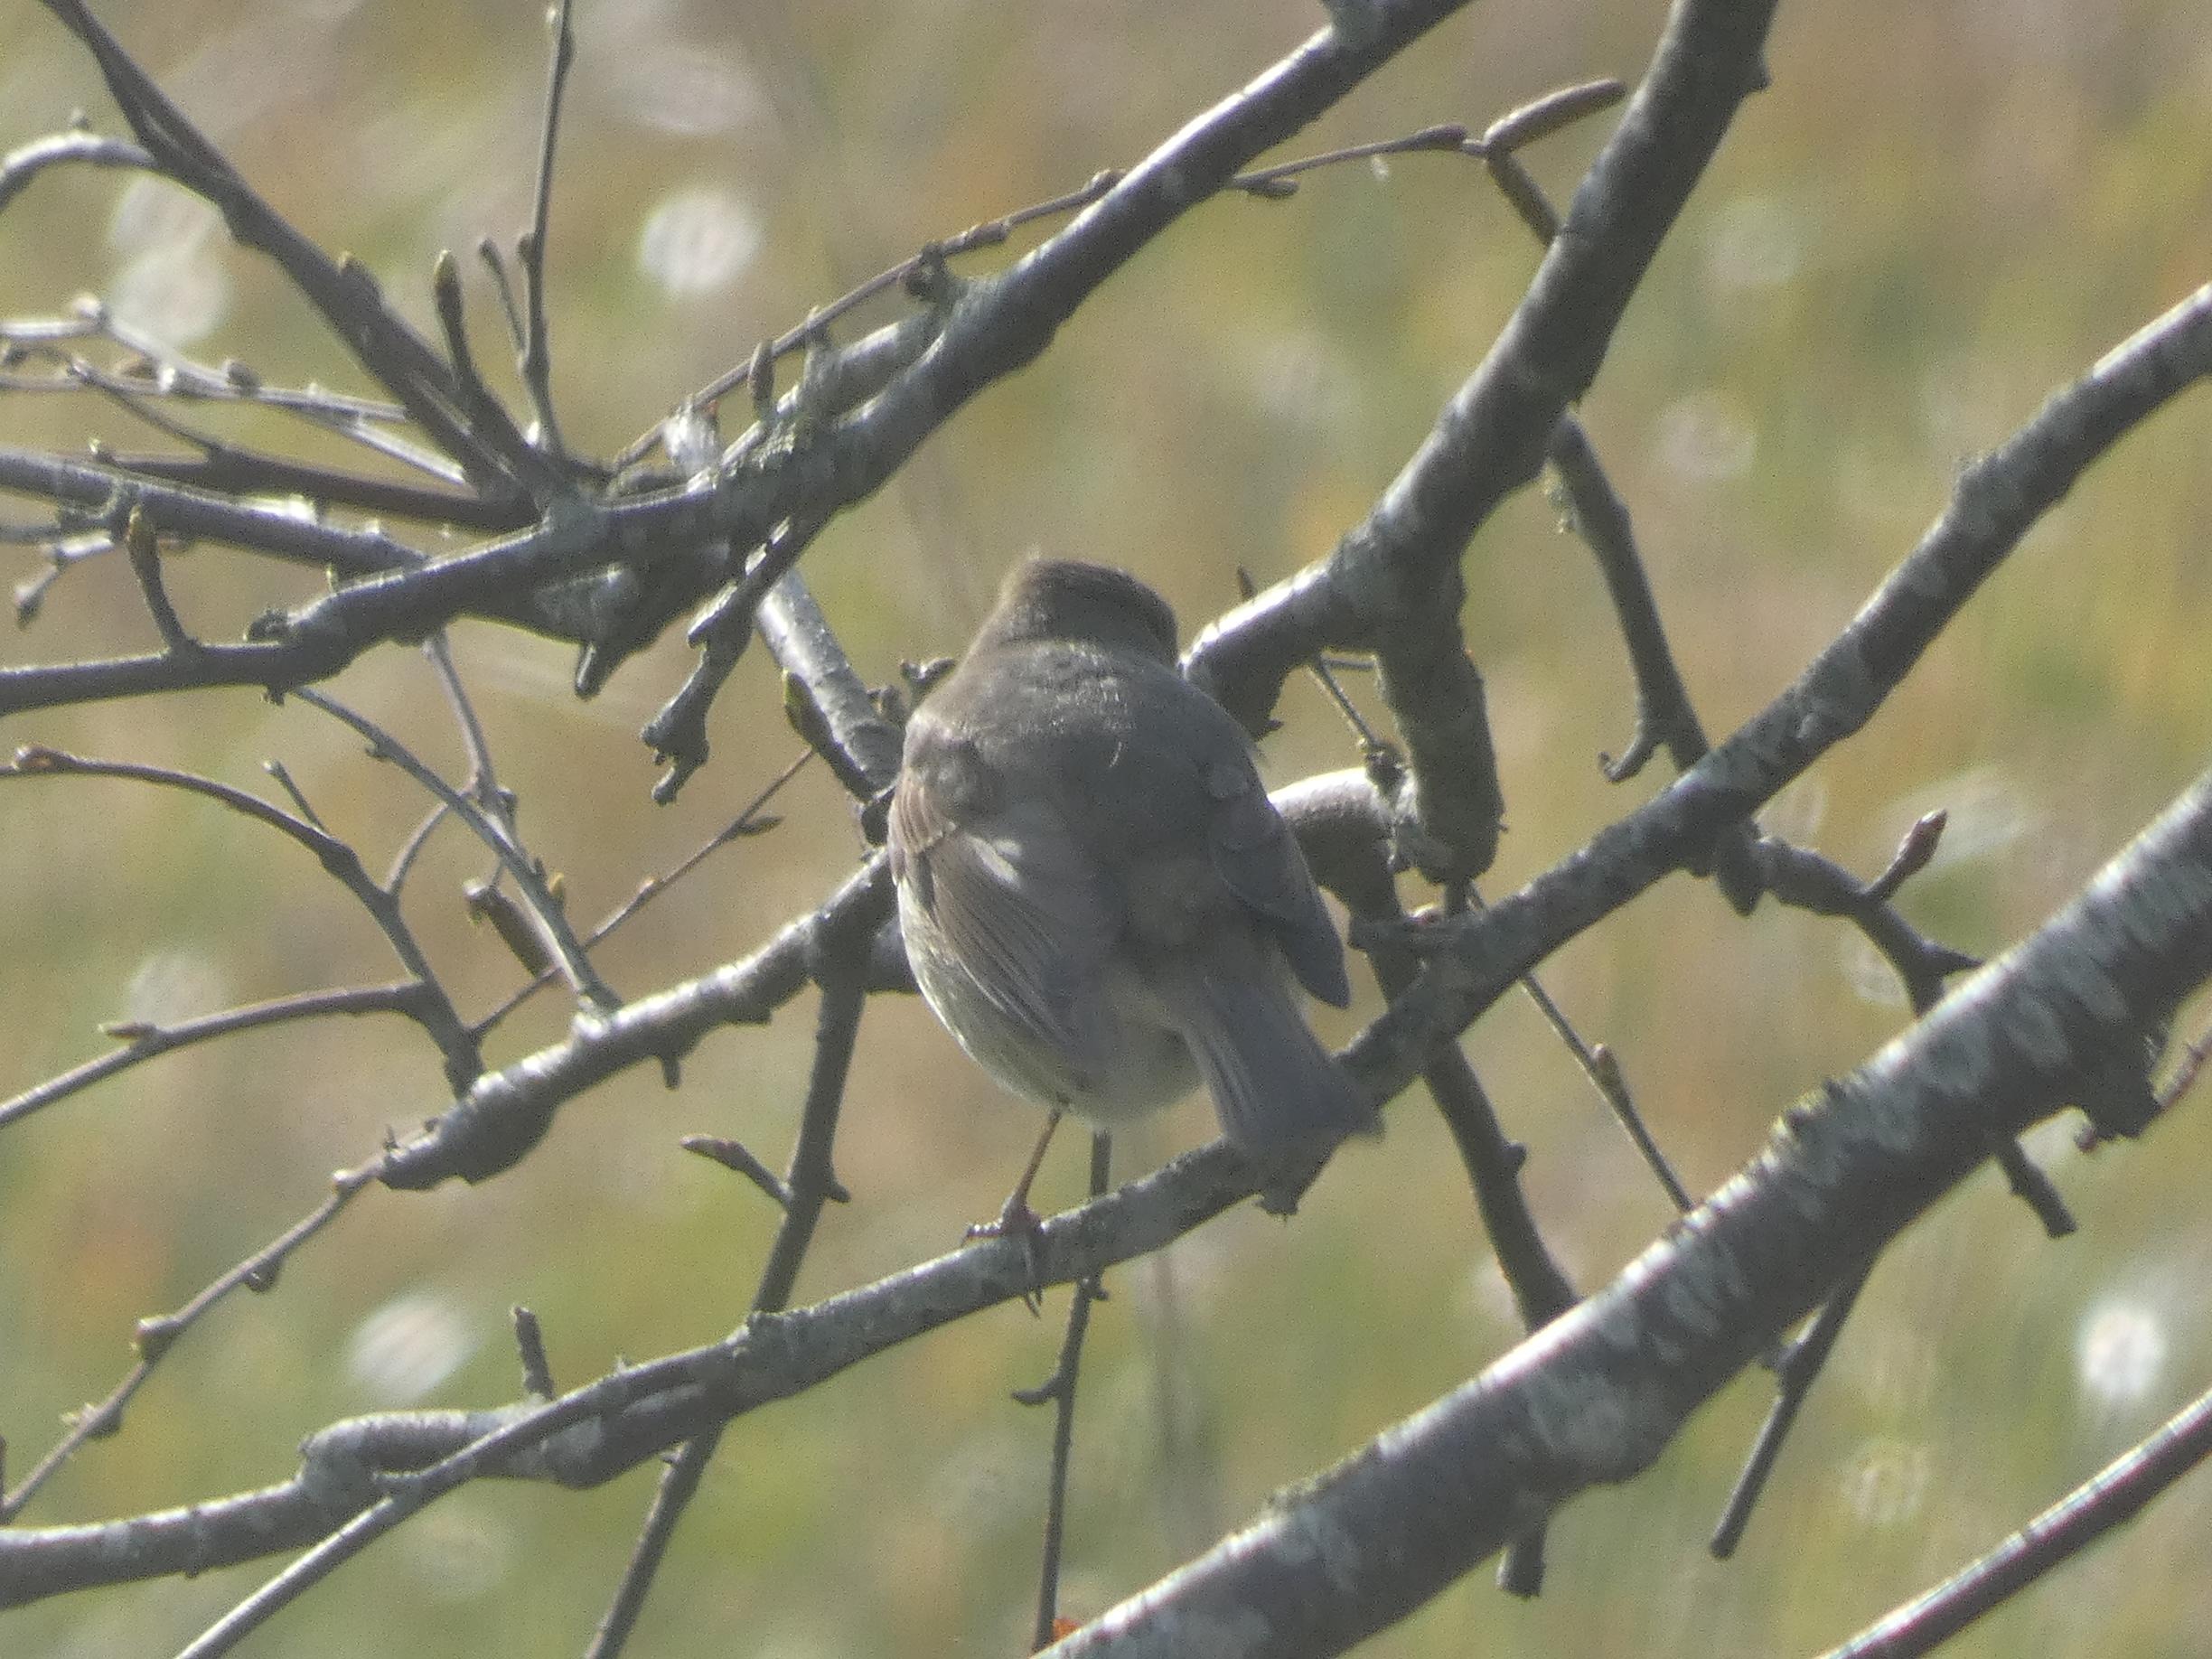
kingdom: Animalia
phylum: Chordata
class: Aves
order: Passeriformes
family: Muscicapidae
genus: Erithacus
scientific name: Erithacus rubecula
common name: Rødhals/rødkælk
